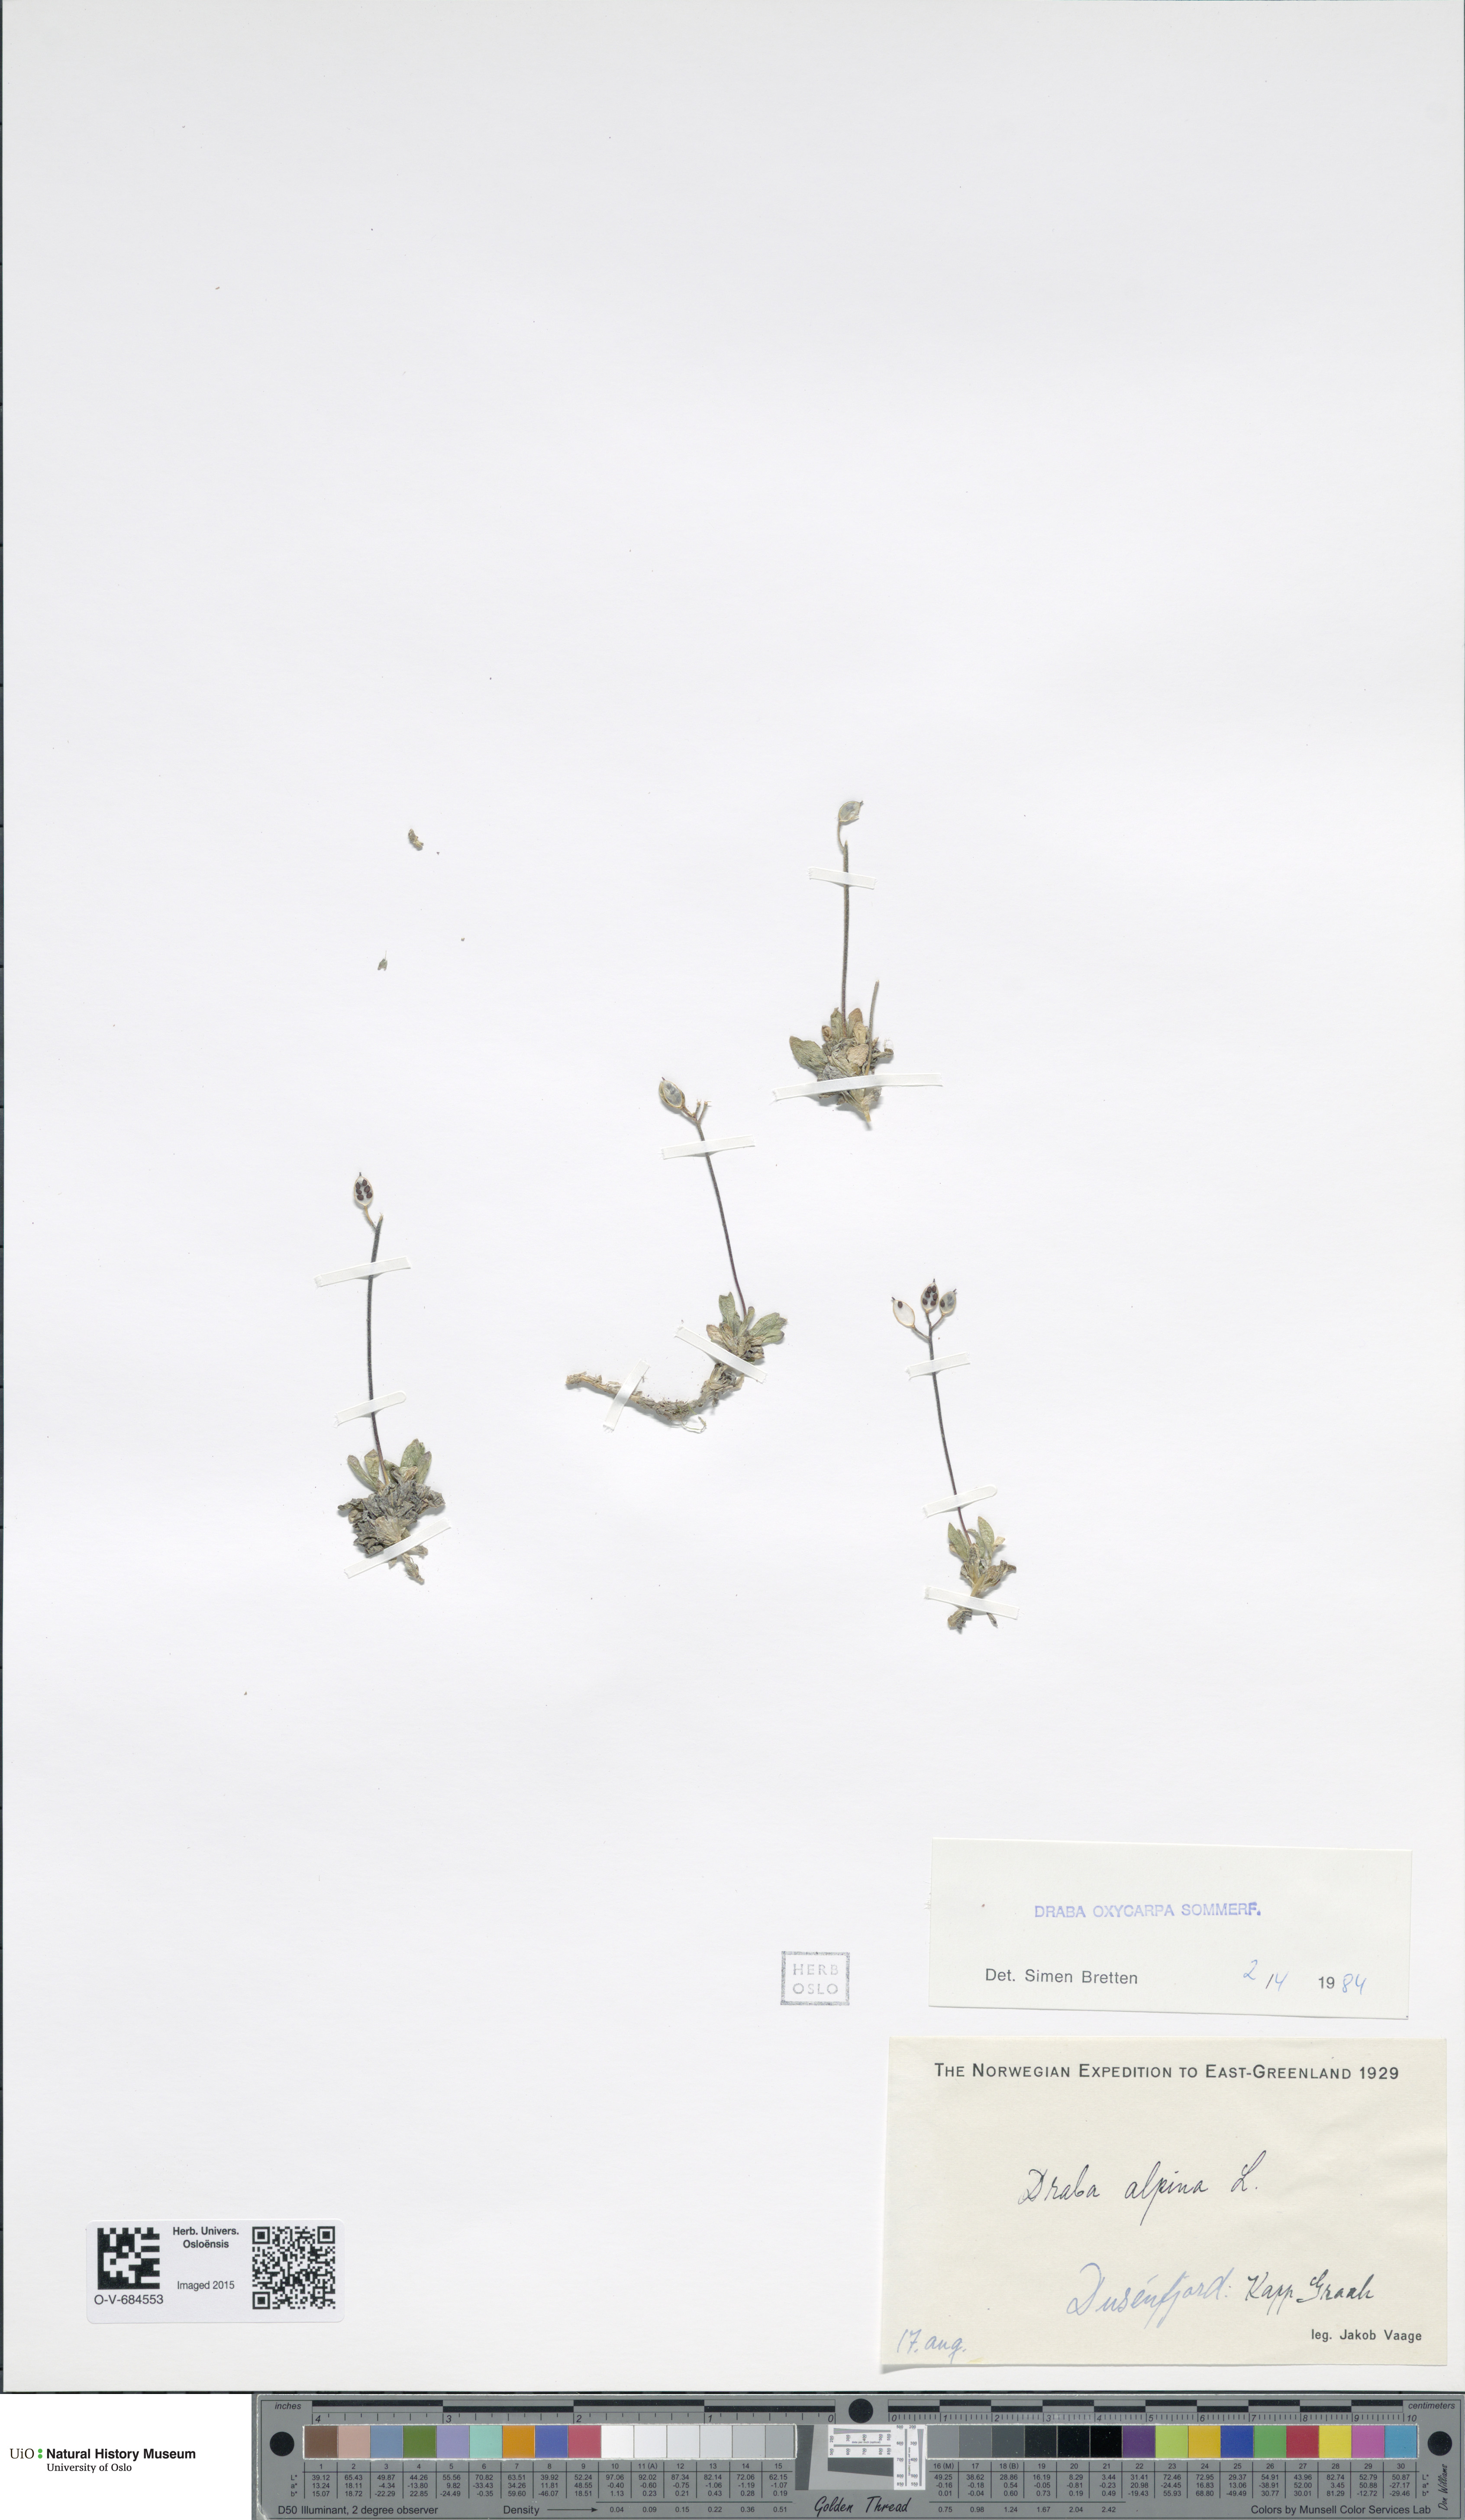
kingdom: Plantae
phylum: Tracheophyta
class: Magnoliopsida
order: Brassicales
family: Brassicaceae
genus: Draba
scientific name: Draba oxycarpa
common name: Sharp-fruited whitlow-grass
